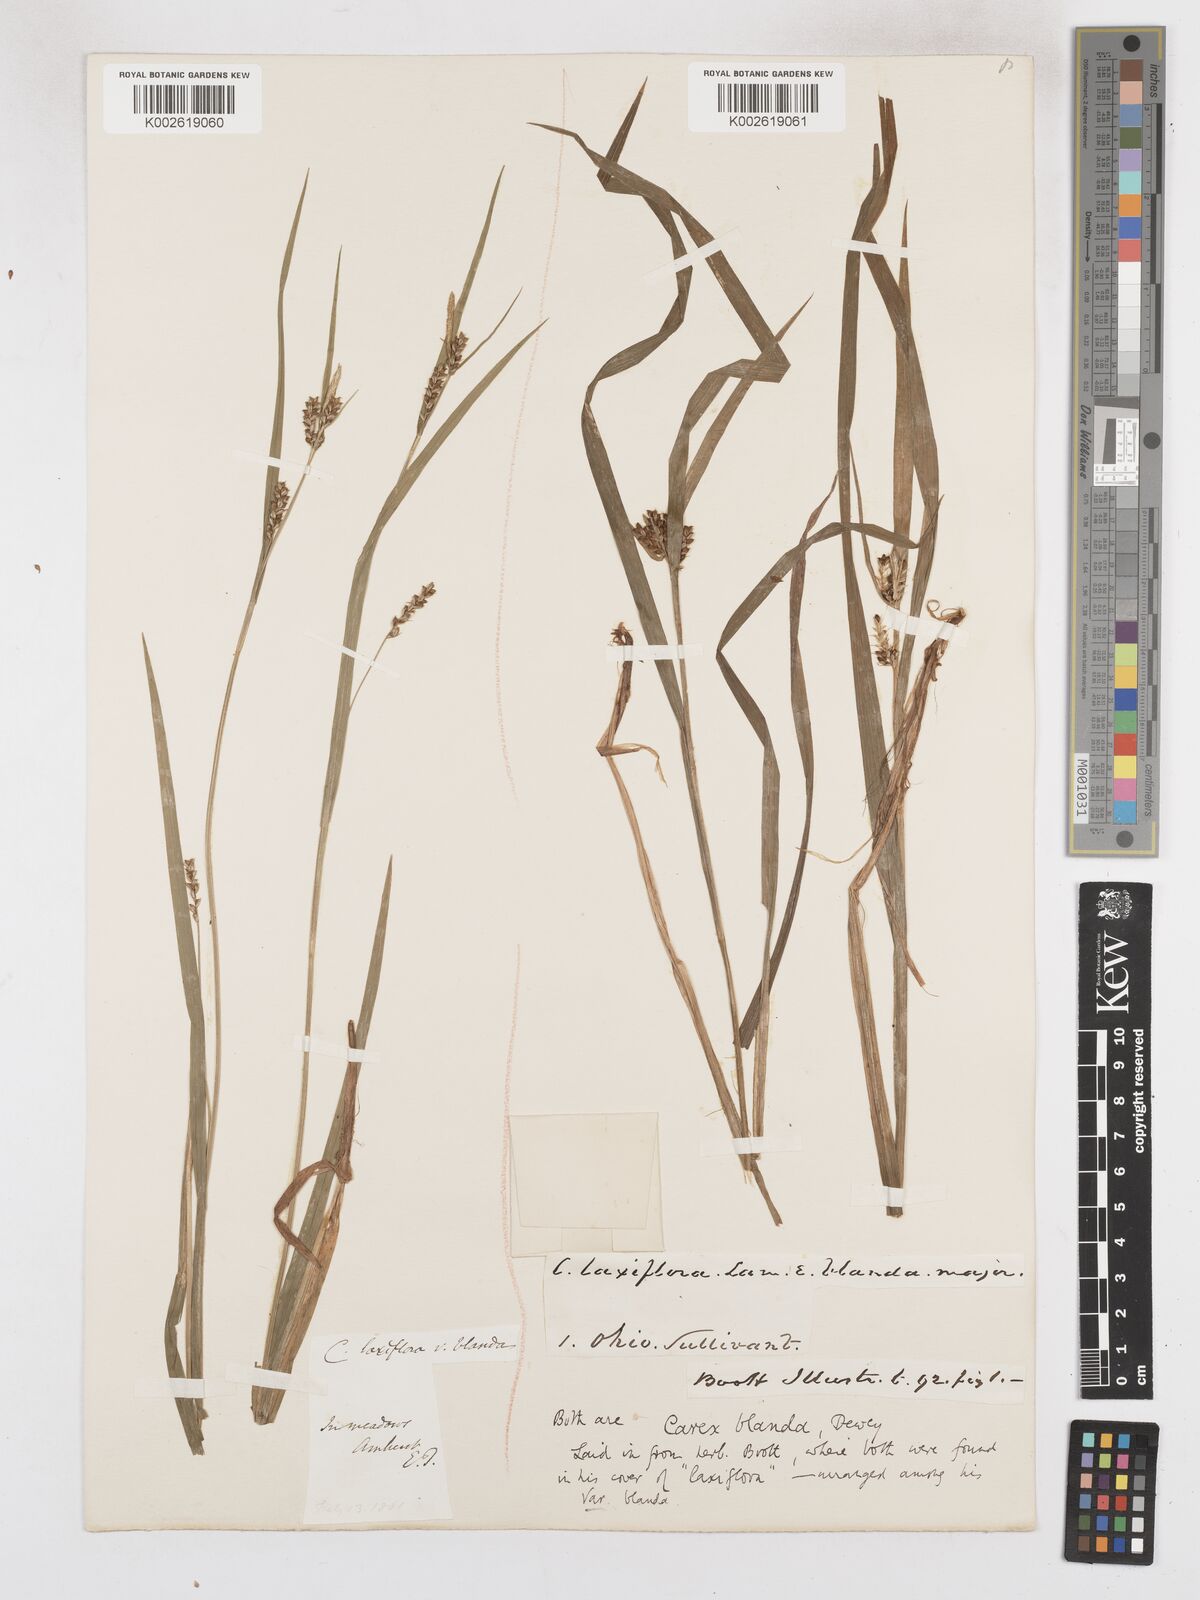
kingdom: Plantae
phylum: Tracheophyta
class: Liliopsida
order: Poales
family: Cyperaceae
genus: Carex
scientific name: Carex blanda
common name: Bland sedge
